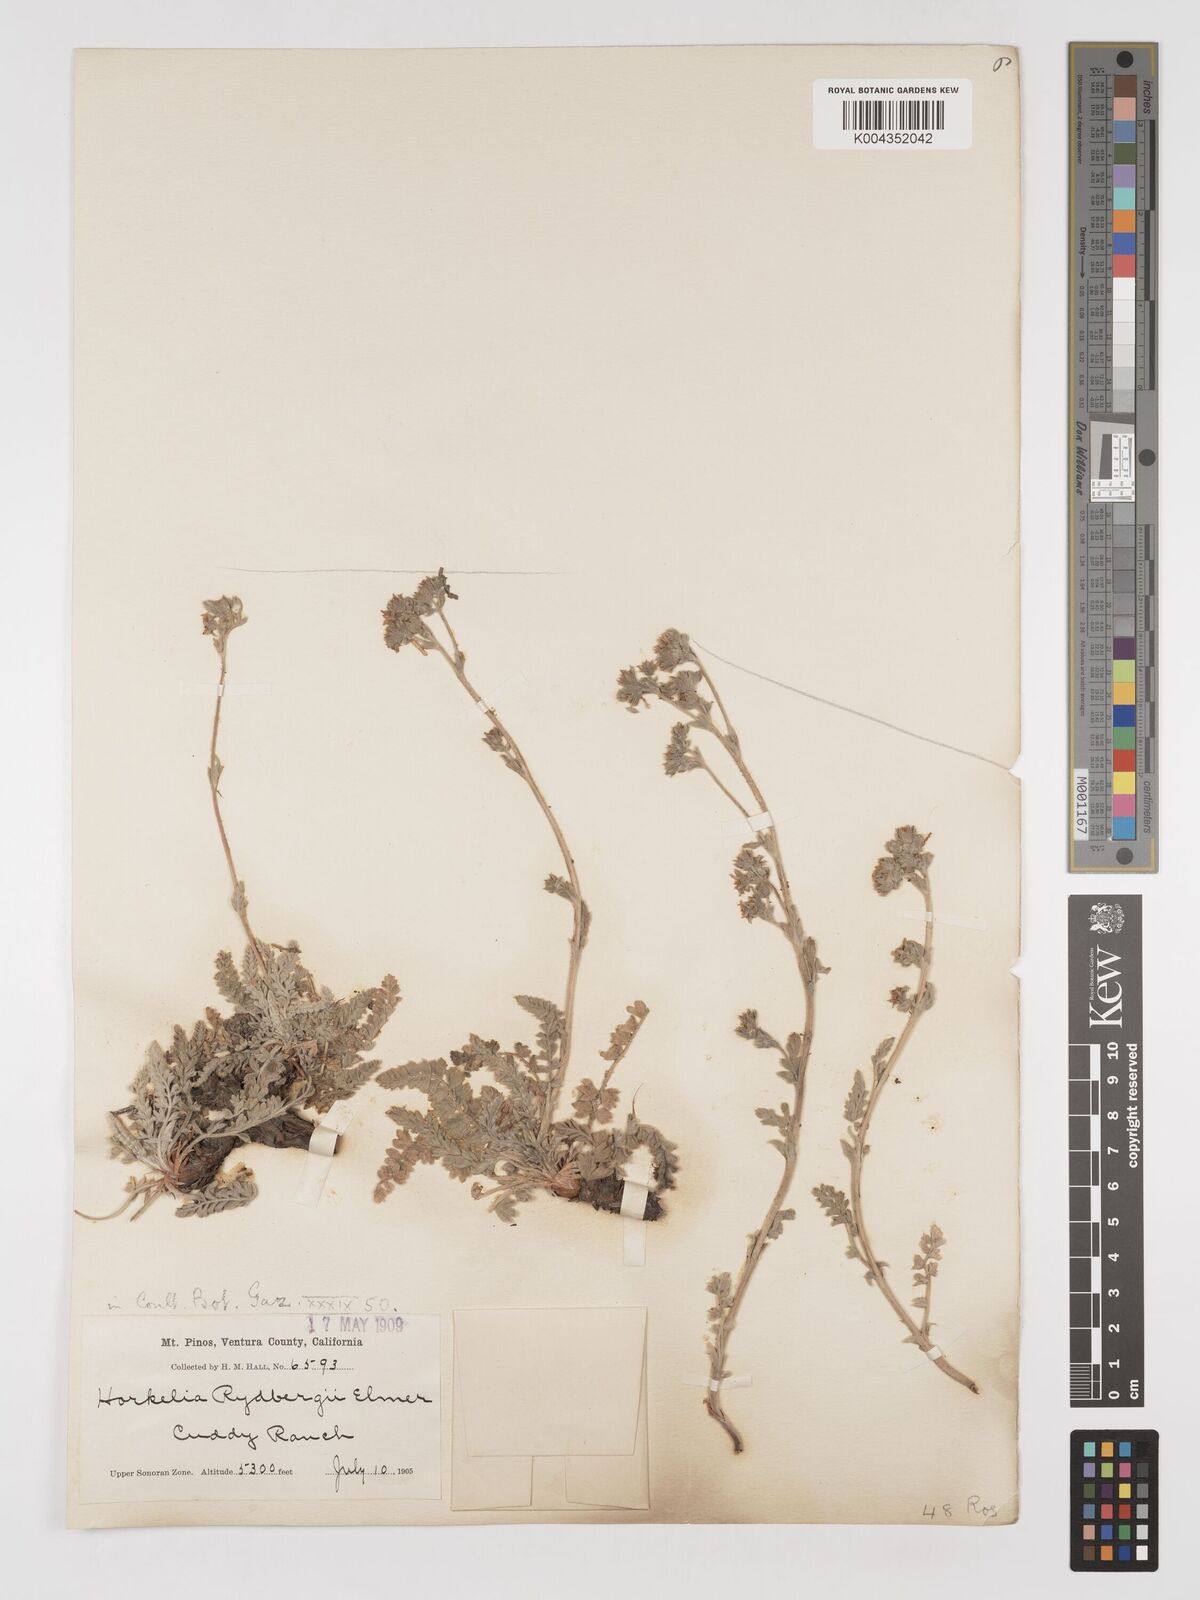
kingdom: Plantae
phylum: Tracheophyta
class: Magnoliopsida
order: Rosales
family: Rosaceae
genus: Potentilla
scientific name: Potentilla rydbergii
